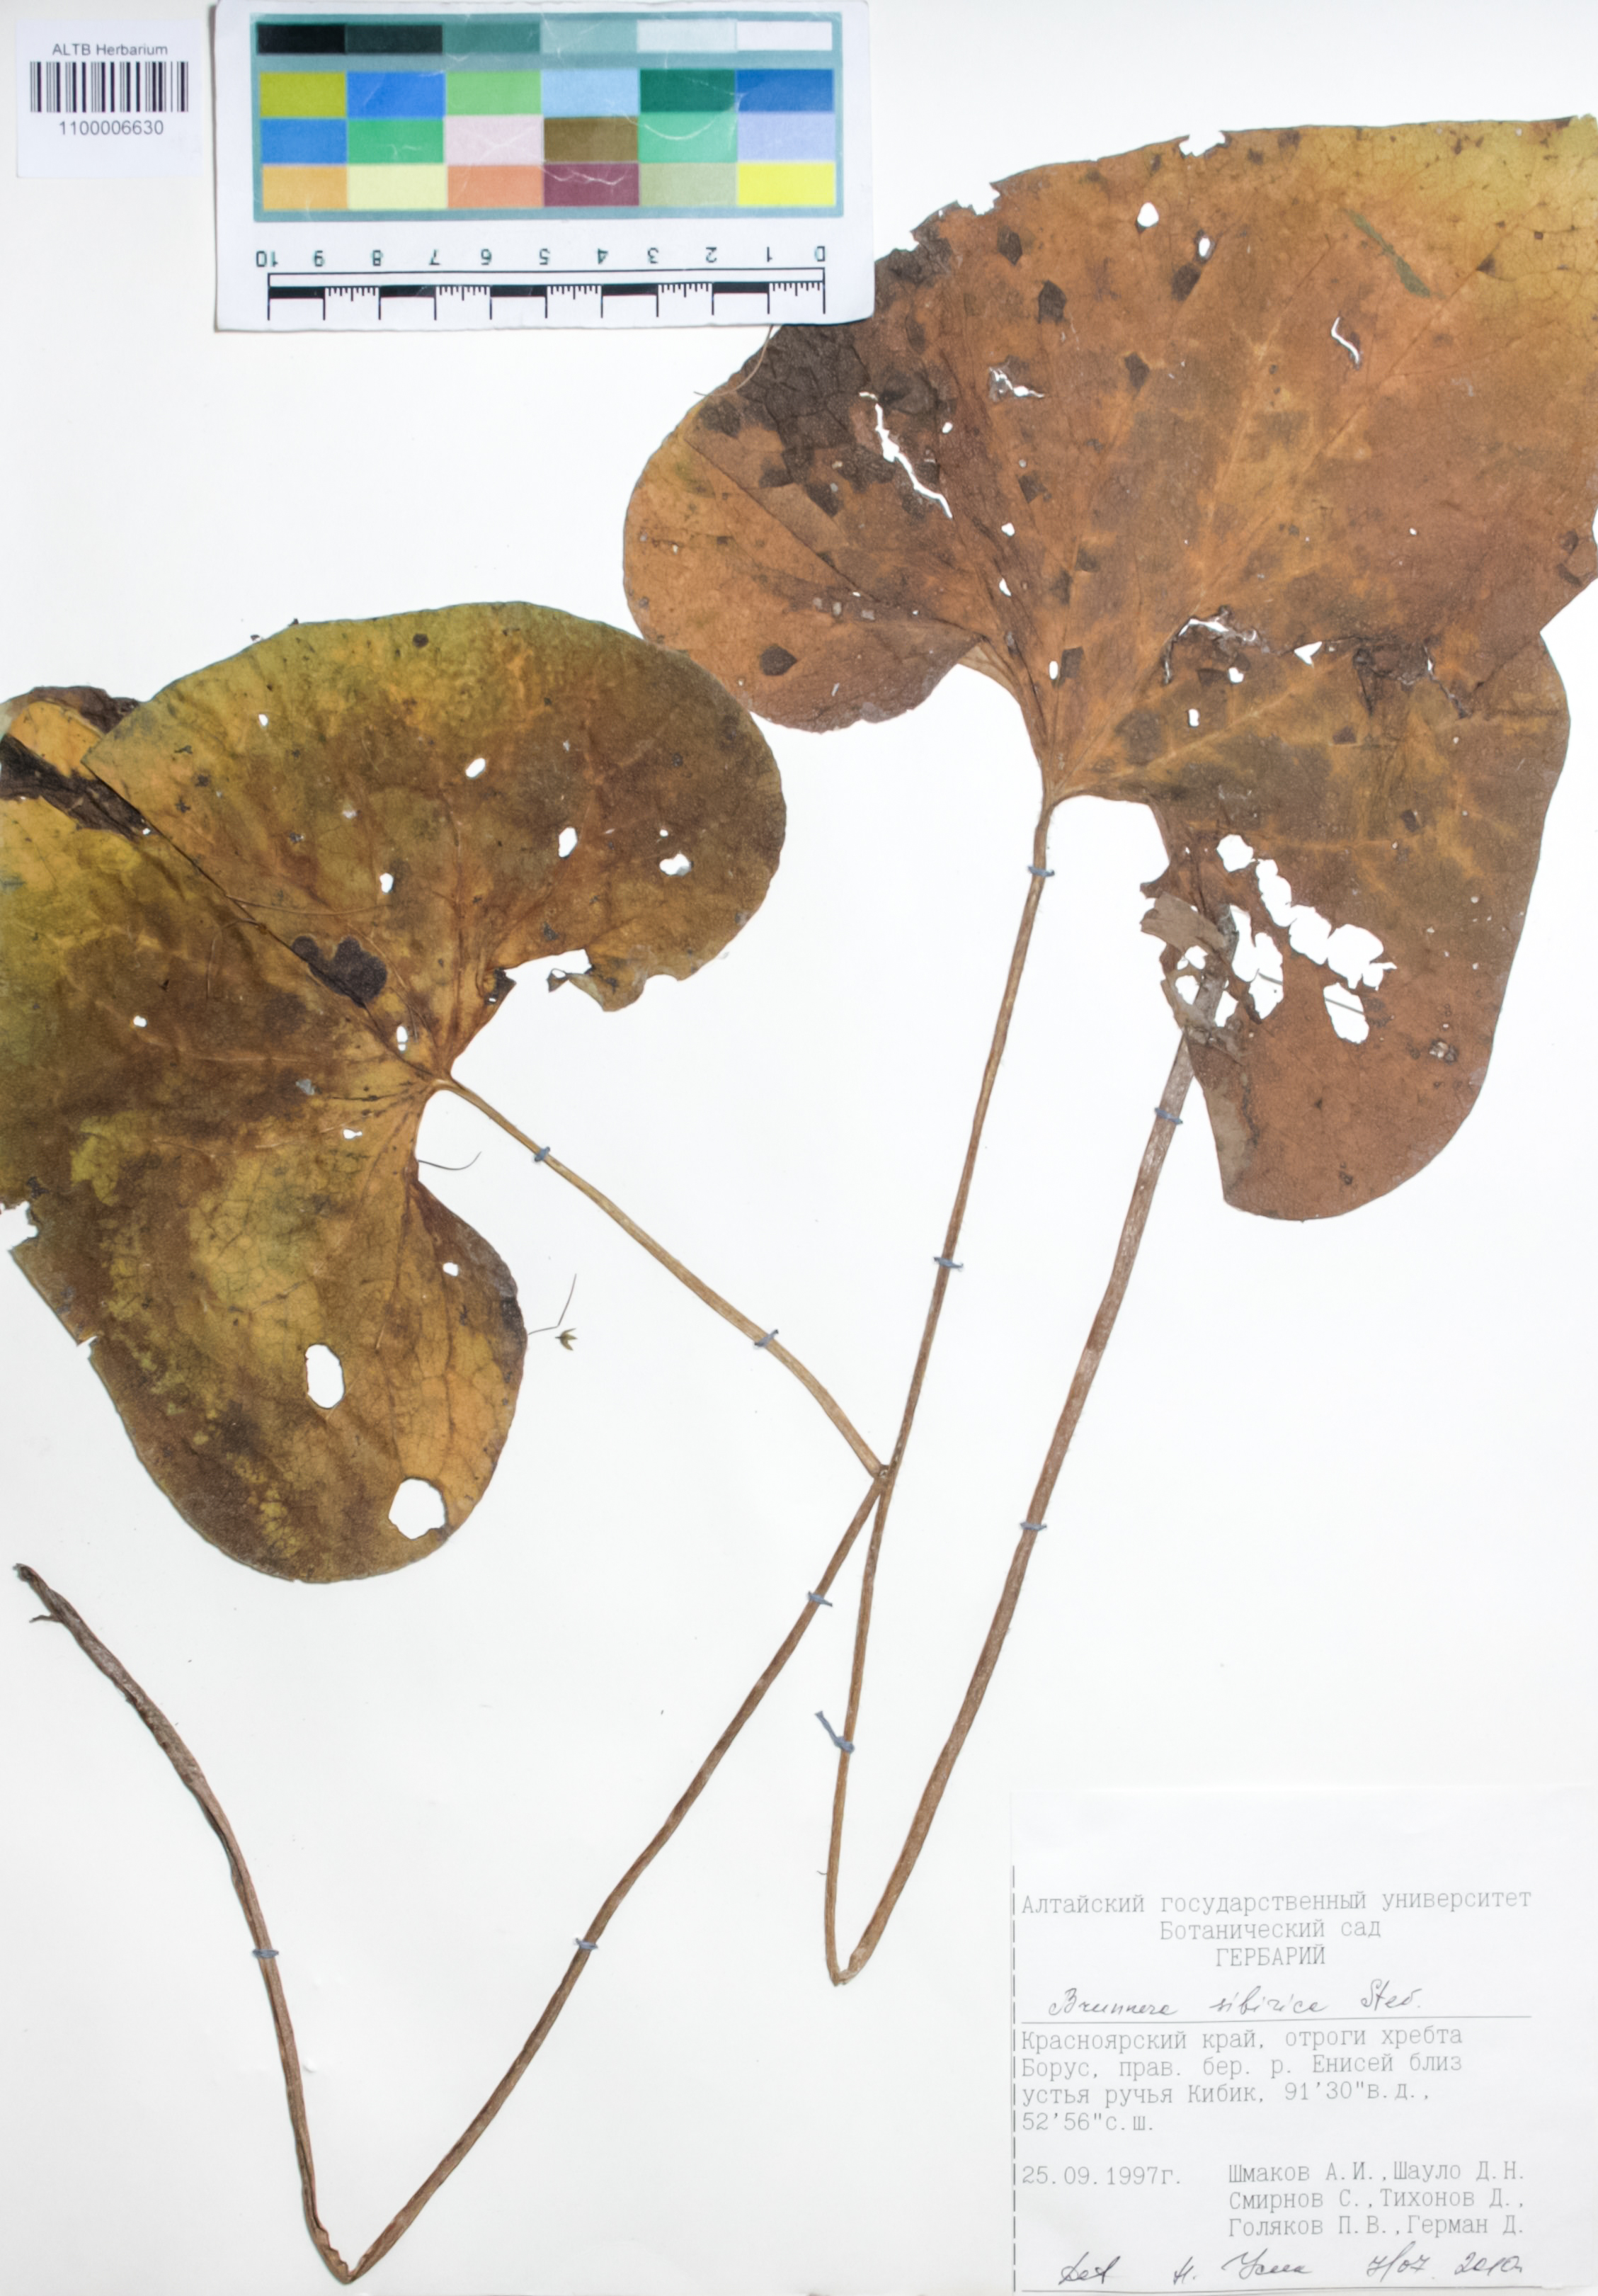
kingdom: Plantae
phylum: Tracheophyta
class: Magnoliopsida
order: Boraginales
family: Boraginaceae
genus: Brunnera
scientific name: Brunnera sibirica
